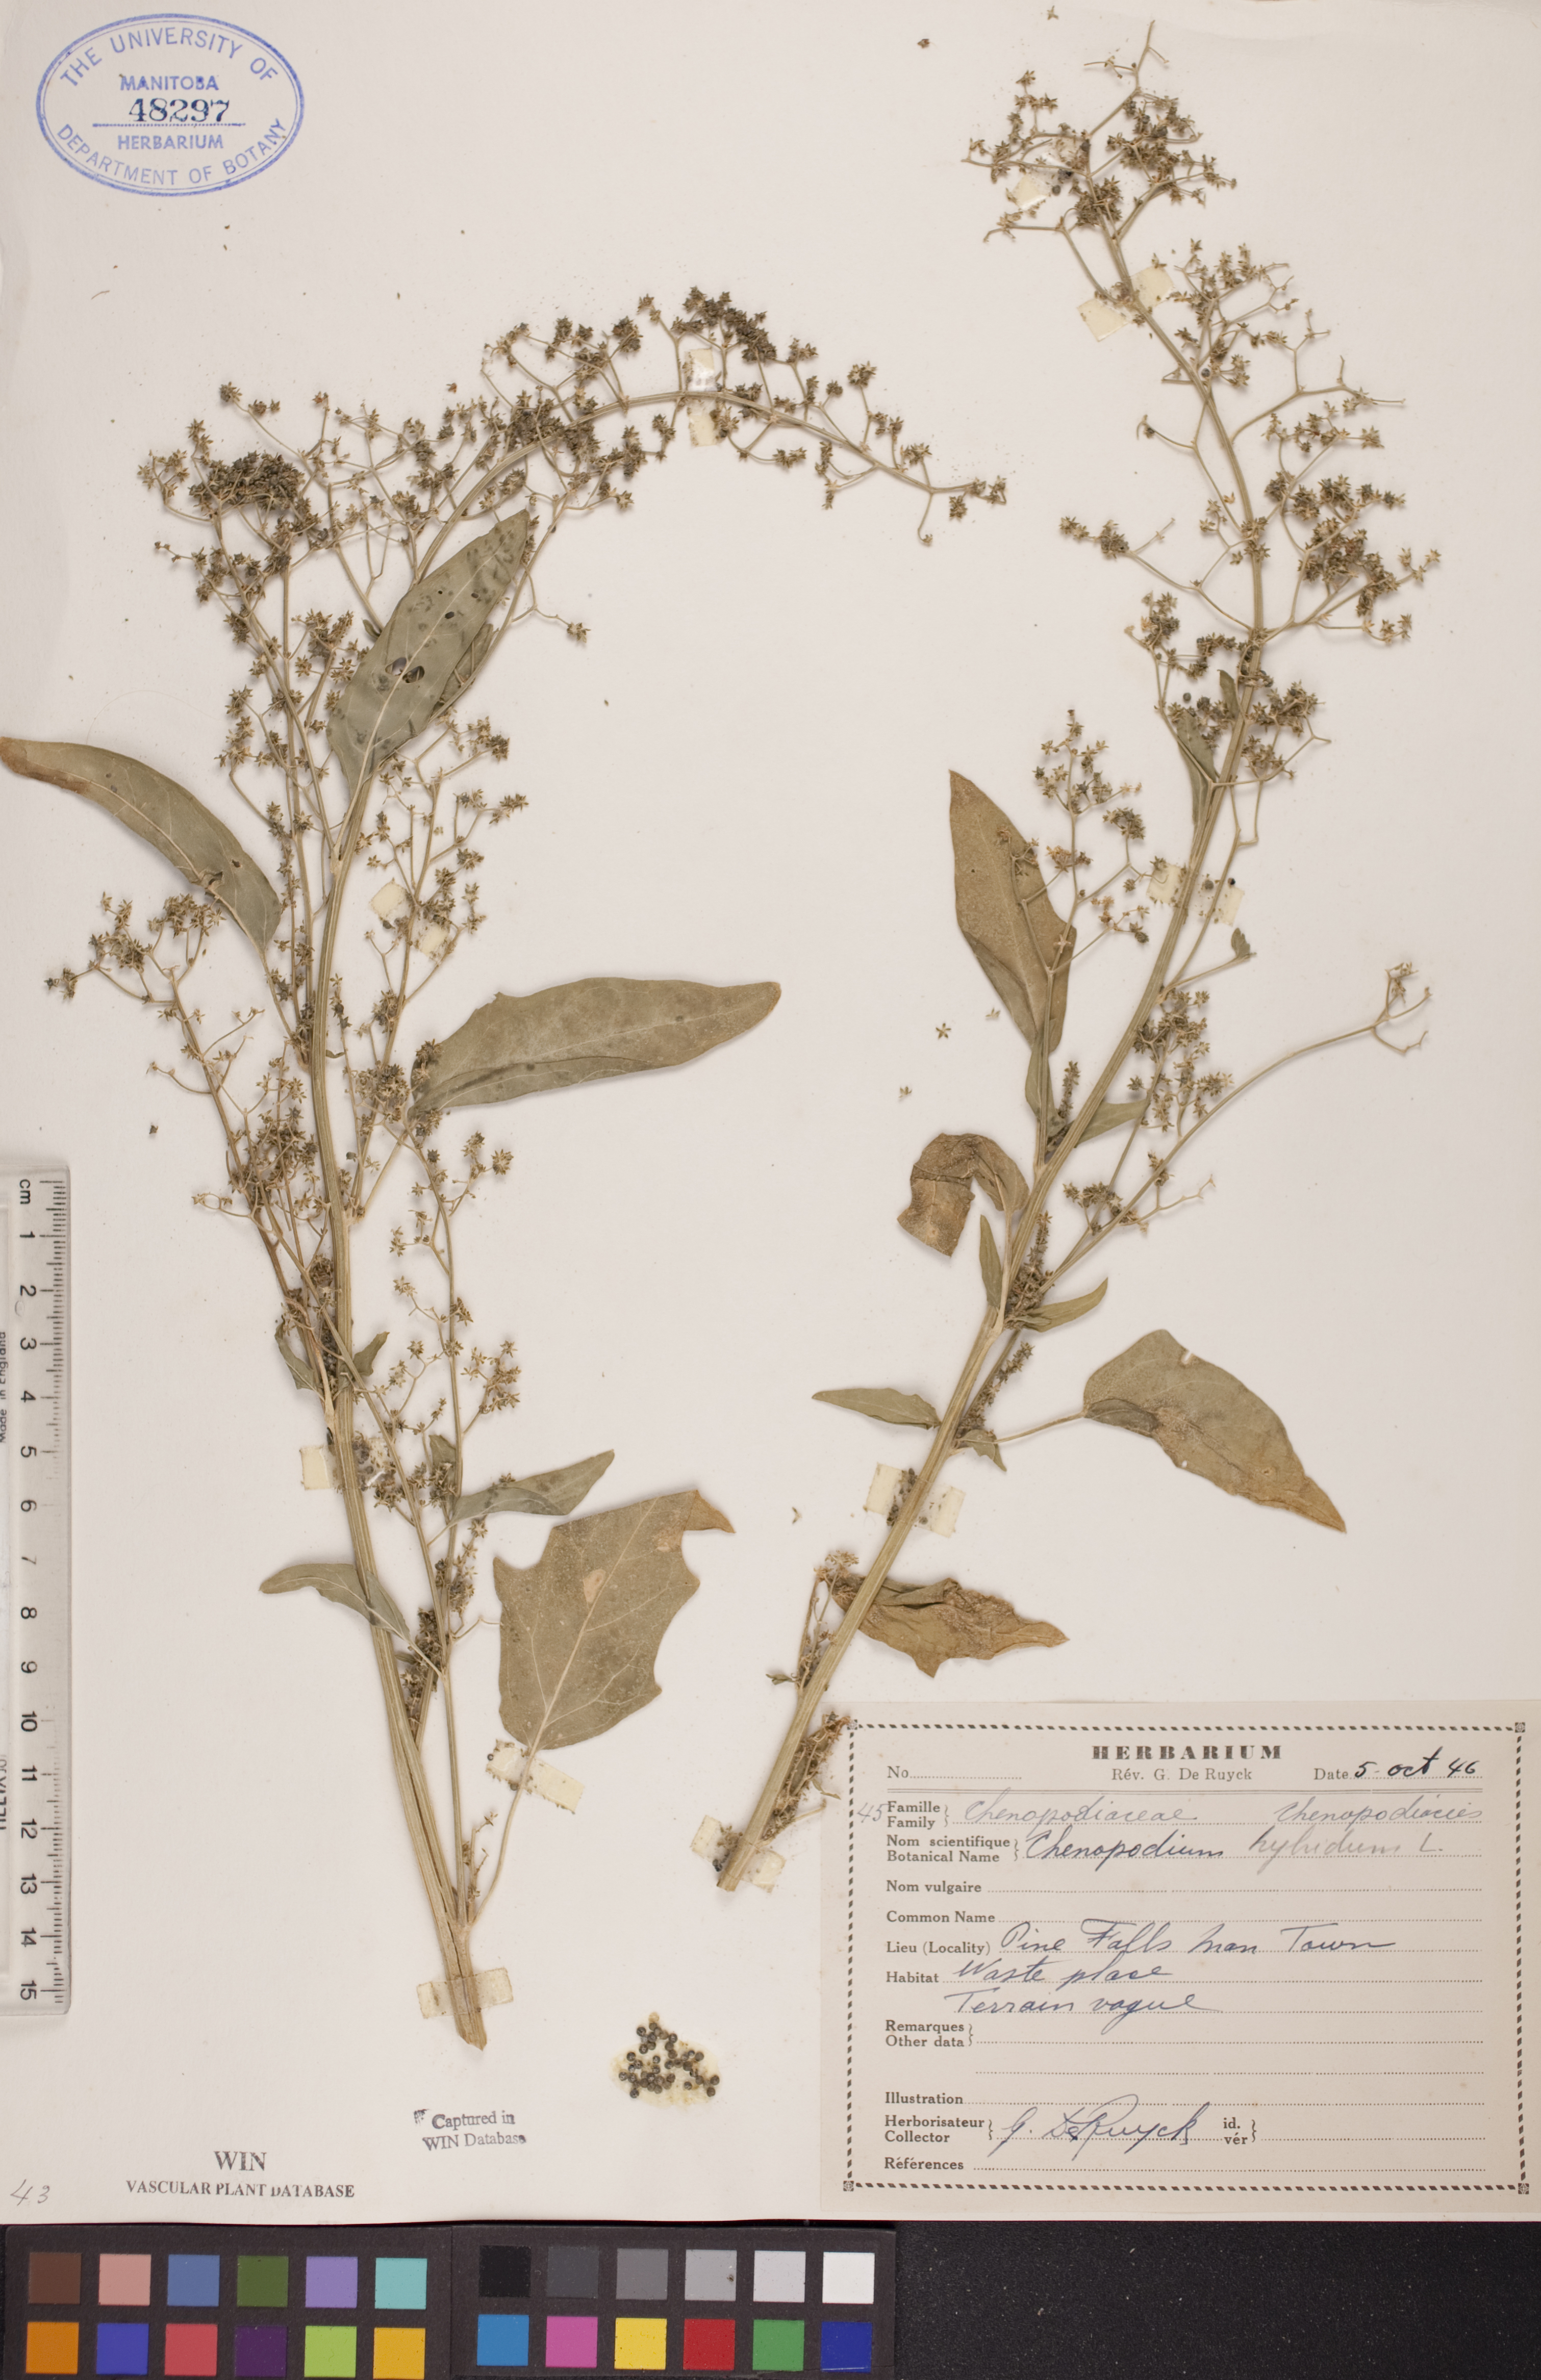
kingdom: Plantae
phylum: Tracheophyta
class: Magnoliopsida
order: Caryophyllales
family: Amaranthaceae
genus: Chenopodiastrum
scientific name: Chenopodiastrum hybridum
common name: Mapleleaf goosefoot
